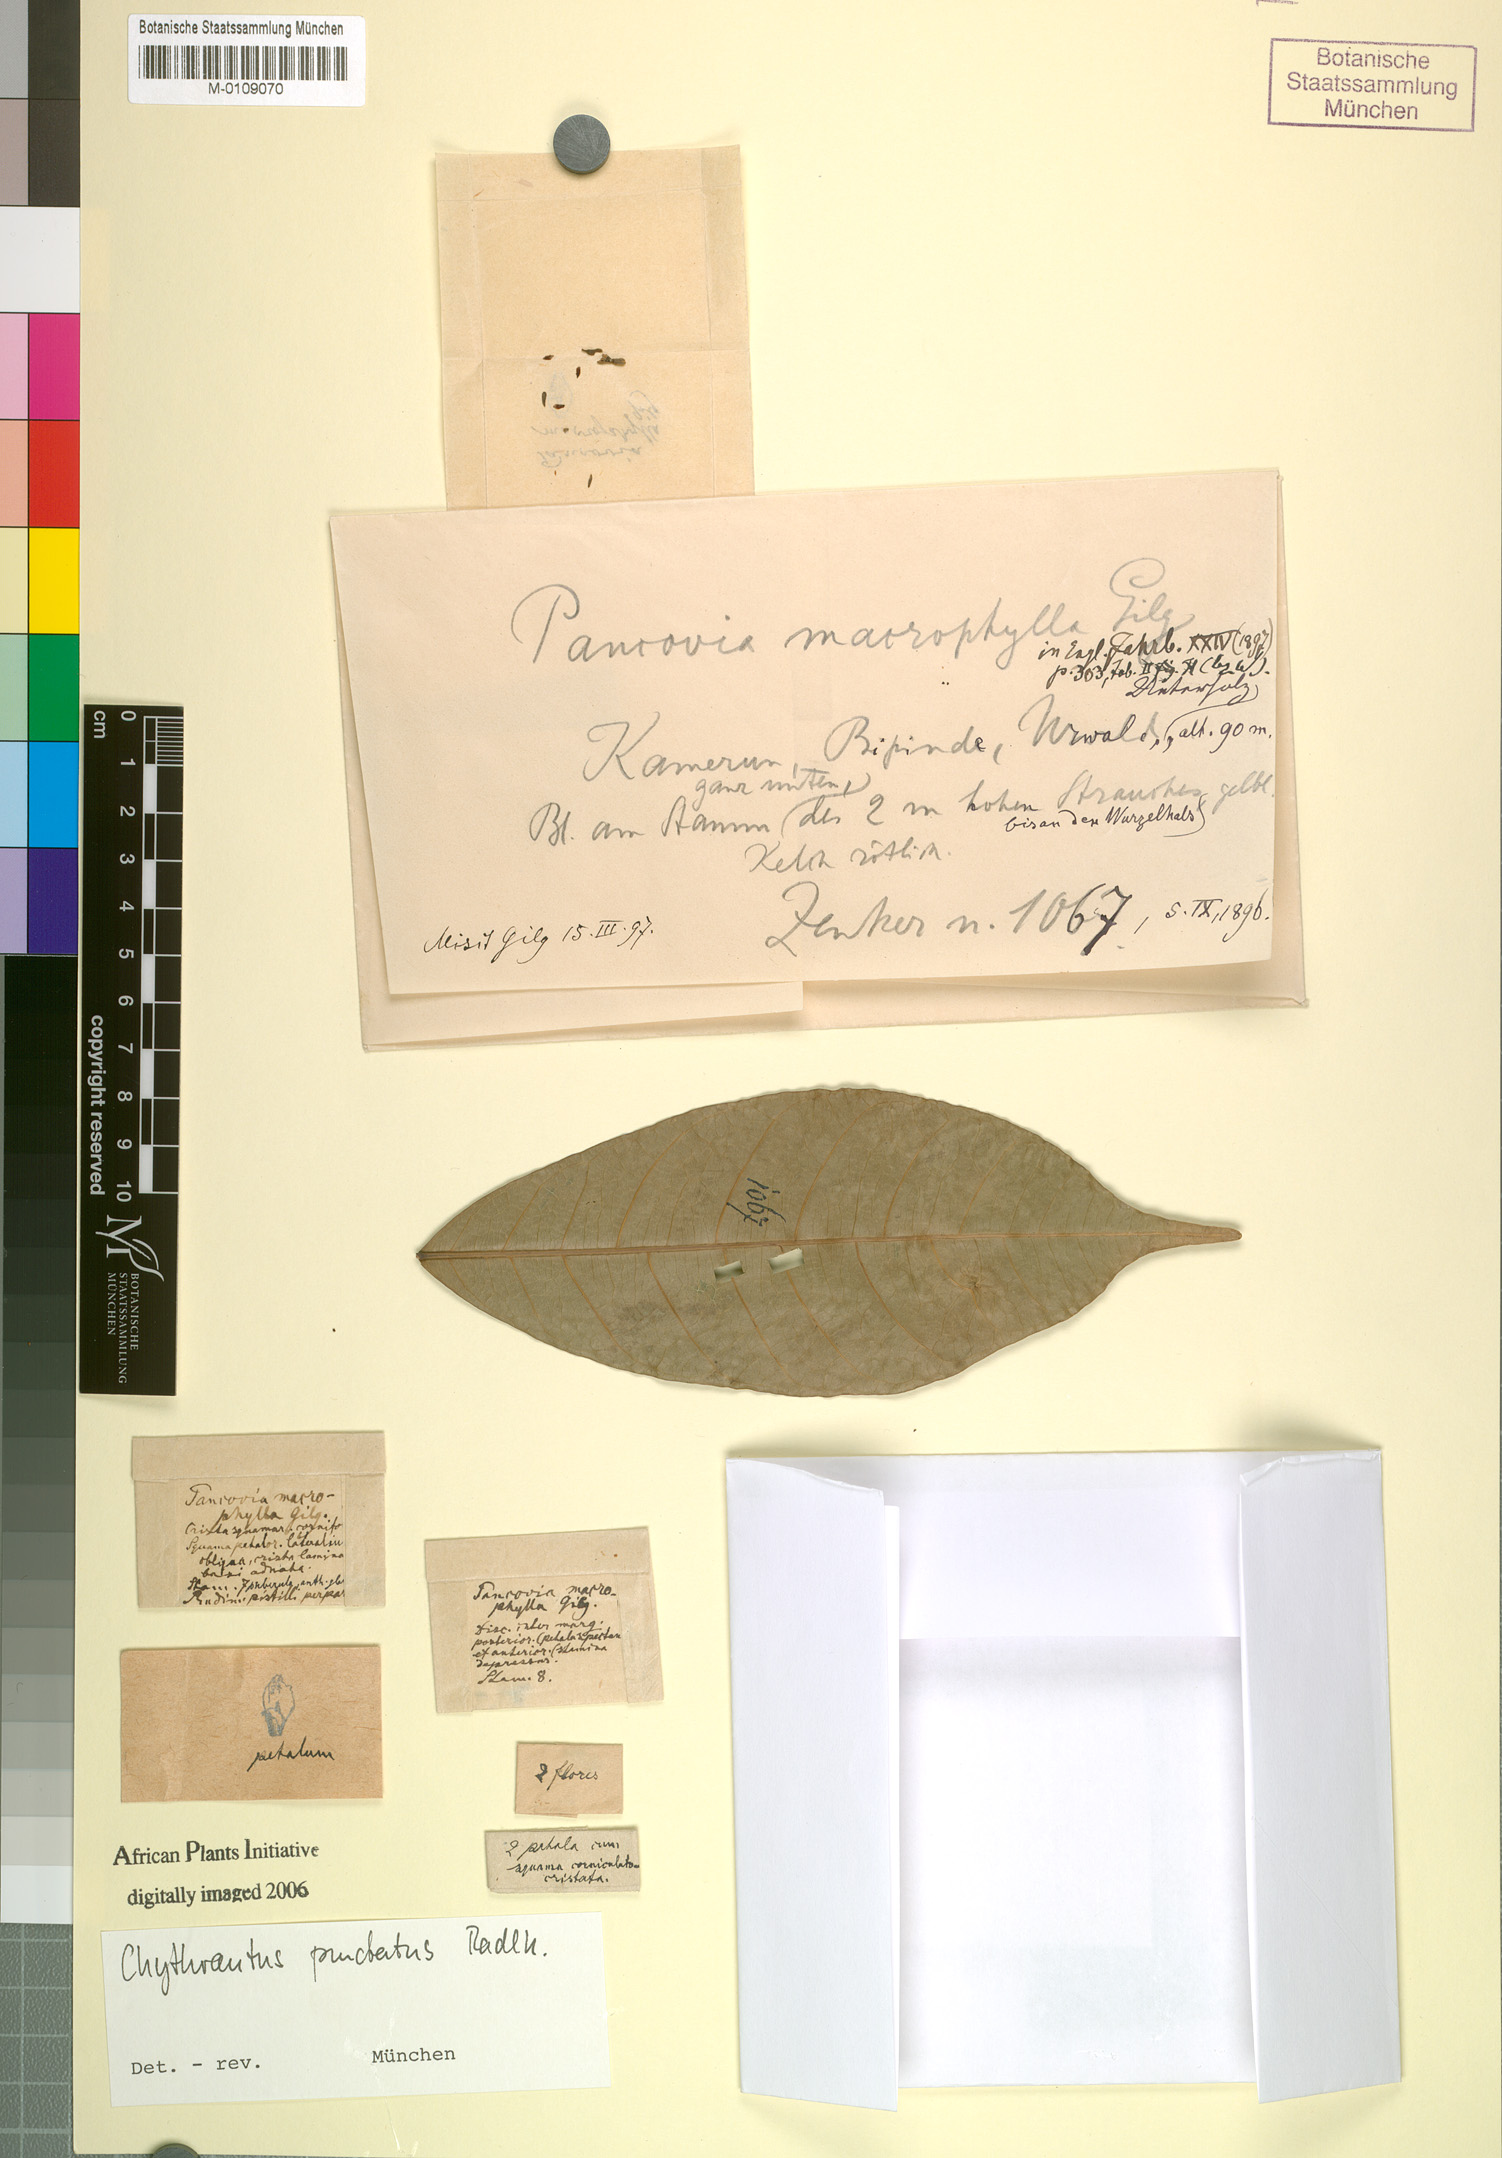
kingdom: Plantae
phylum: Tracheophyta
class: Magnoliopsida
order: Sapindales
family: Sapindaceae
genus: Chytranthus
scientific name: Chytranthus punctatus
